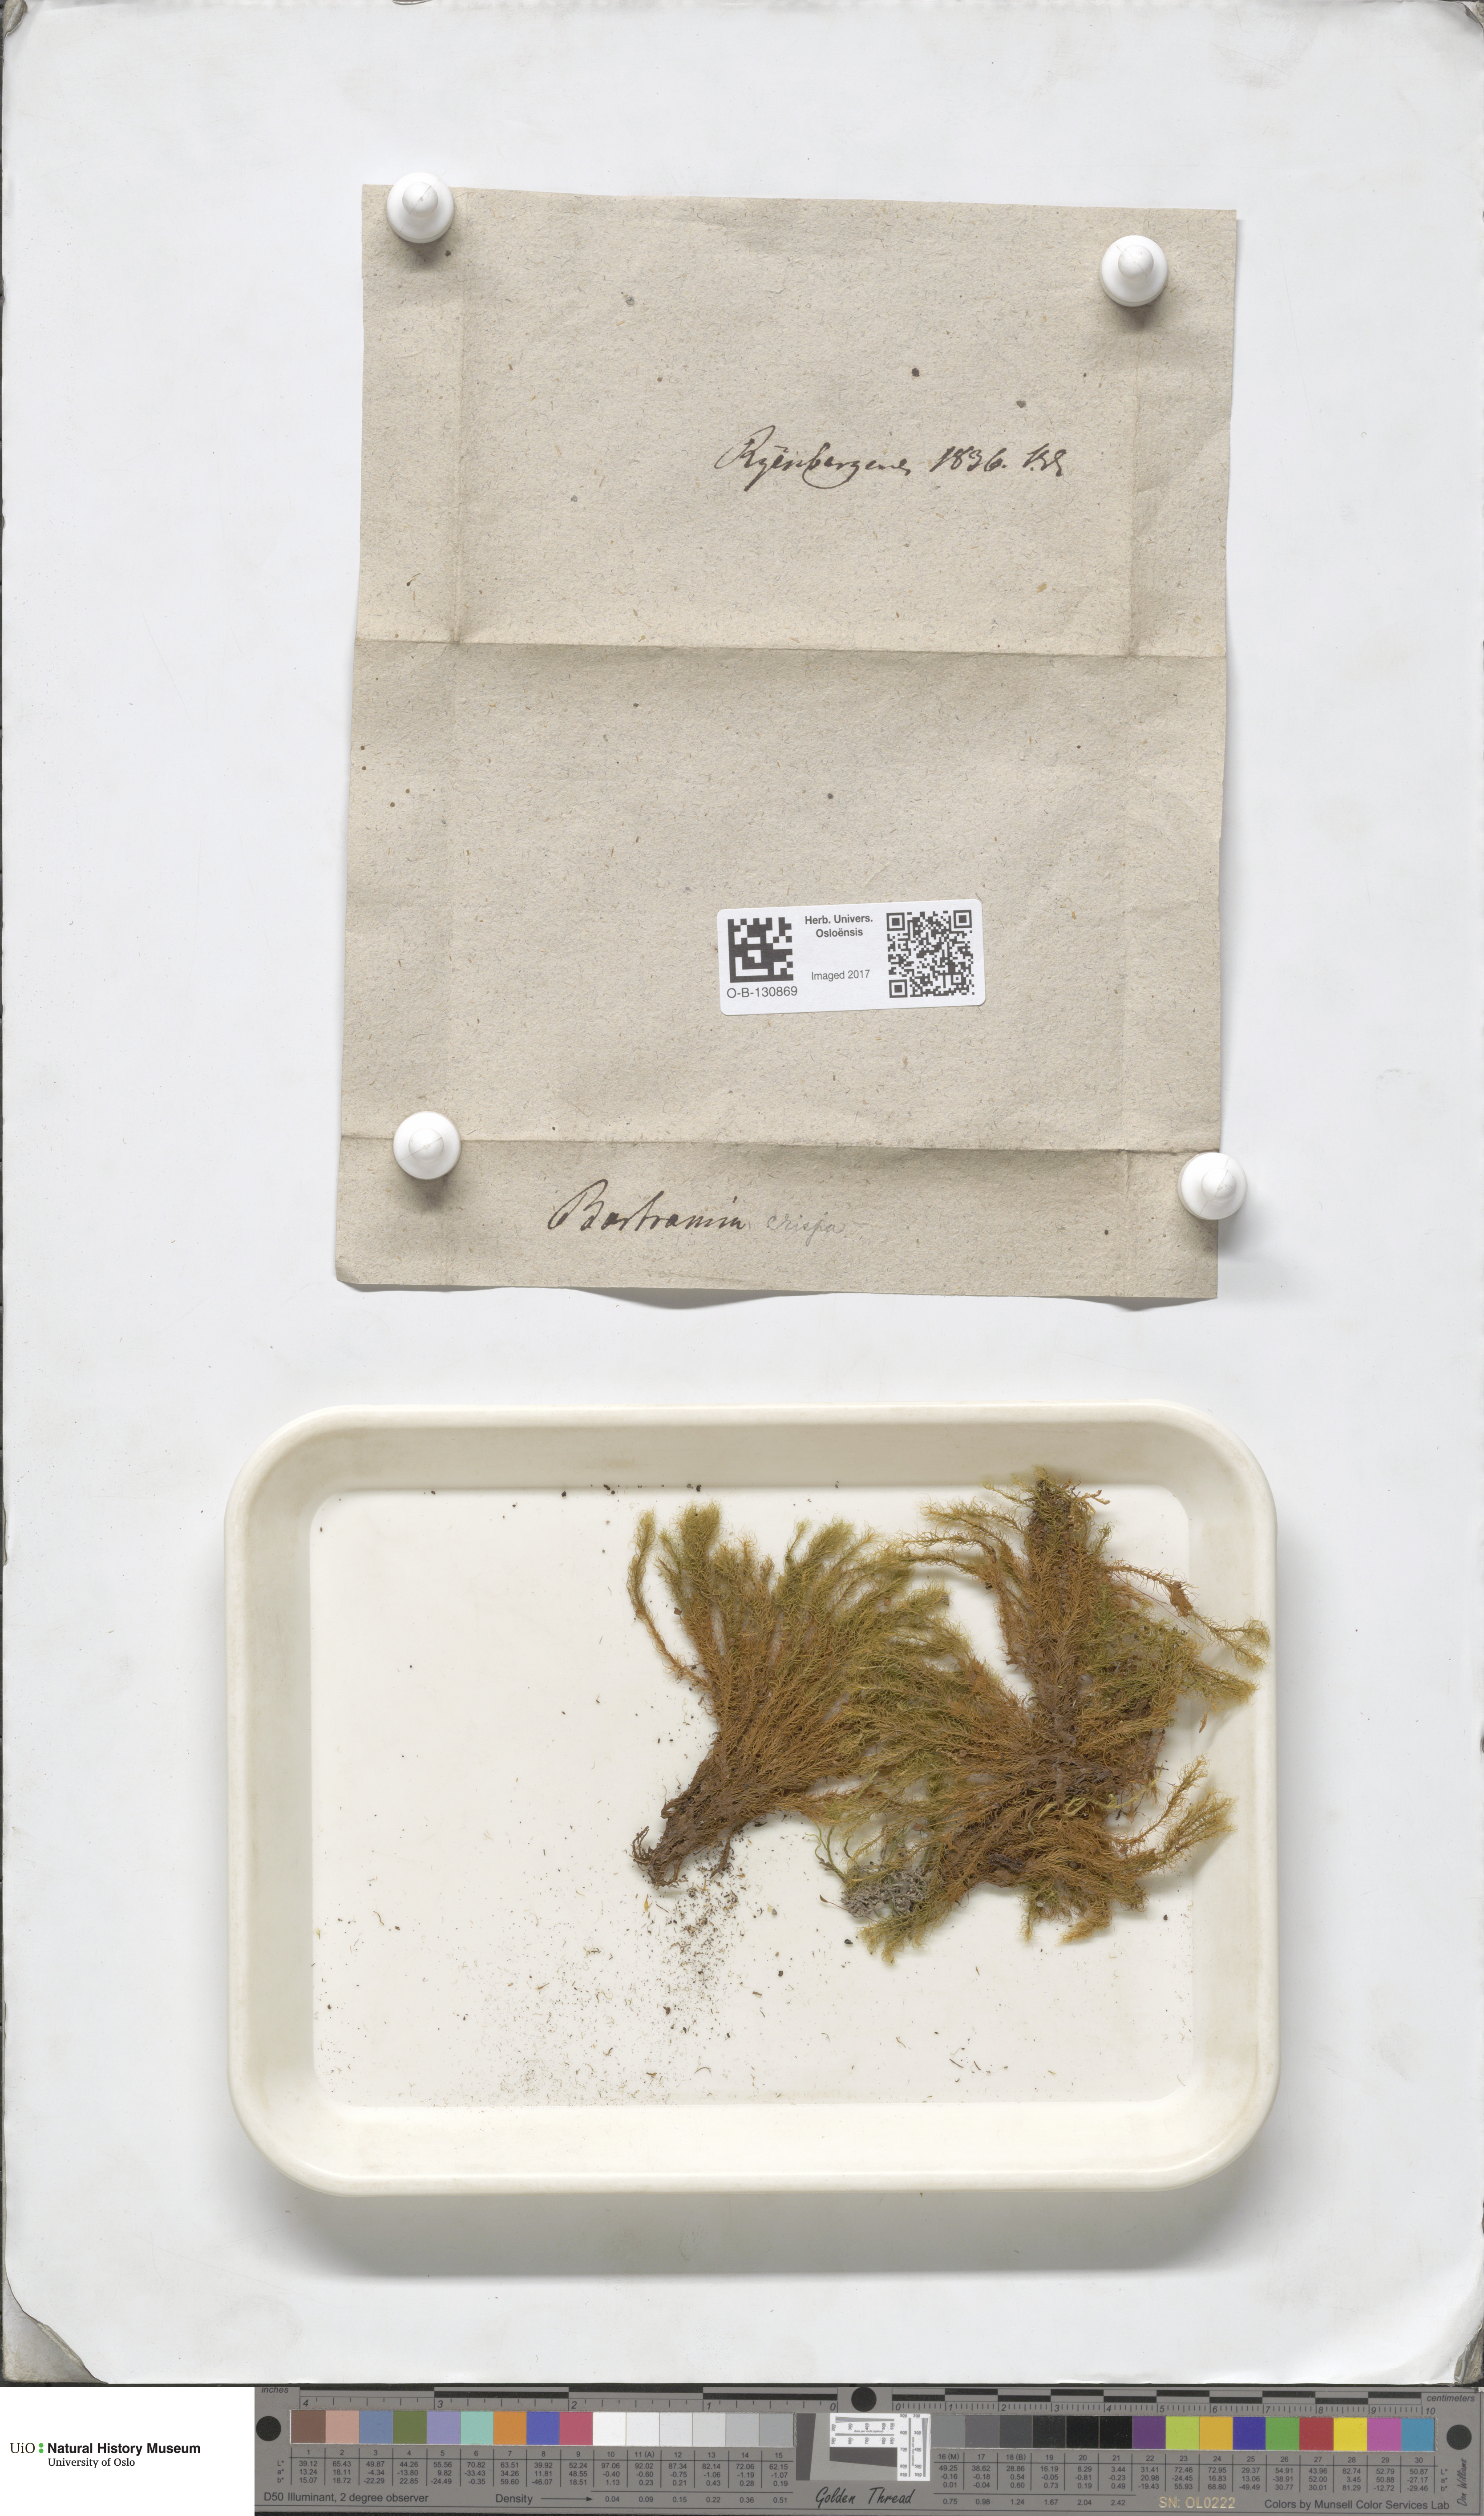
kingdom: Plantae
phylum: Bryophyta
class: Bryopsida
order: Bartramiales
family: Bartramiaceae
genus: Bartramia
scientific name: Bartramia pomiformis
